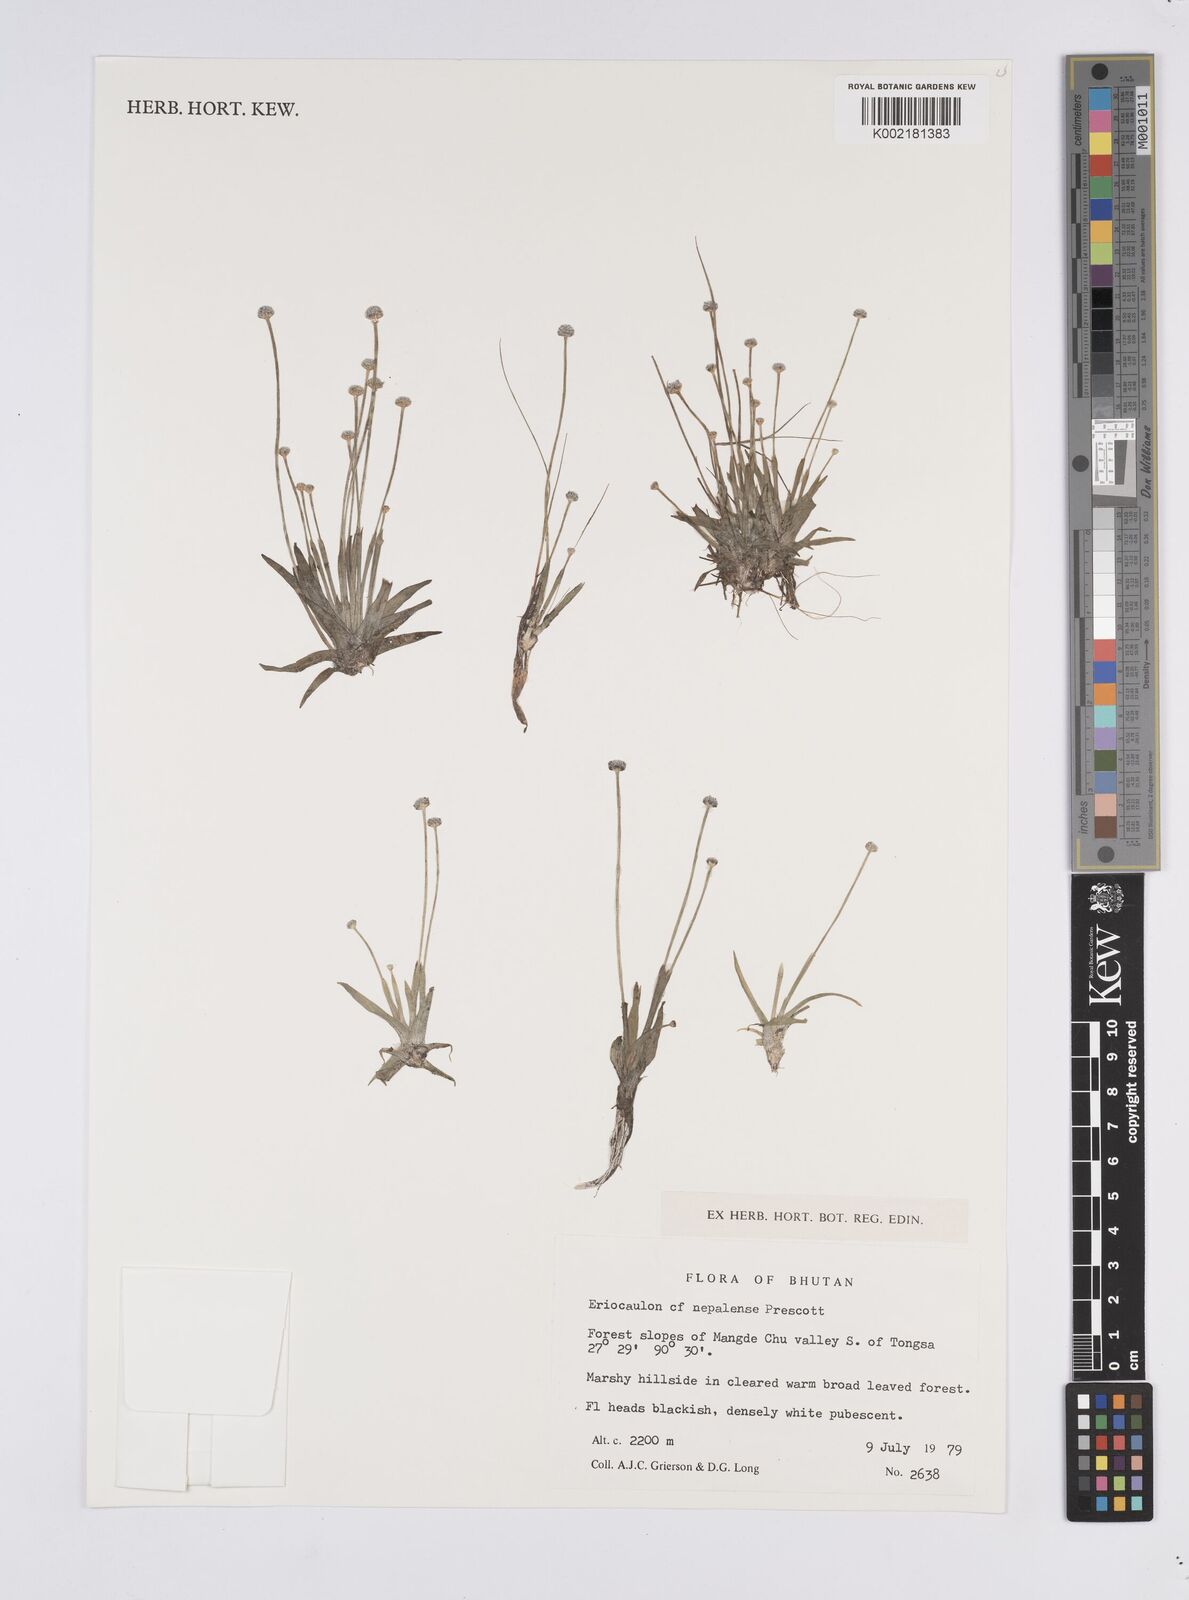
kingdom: Plantae
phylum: Tracheophyta
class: Liliopsida
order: Poales
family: Eriocaulaceae
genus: Eriocaulon
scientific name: Eriocaulon nepalense
